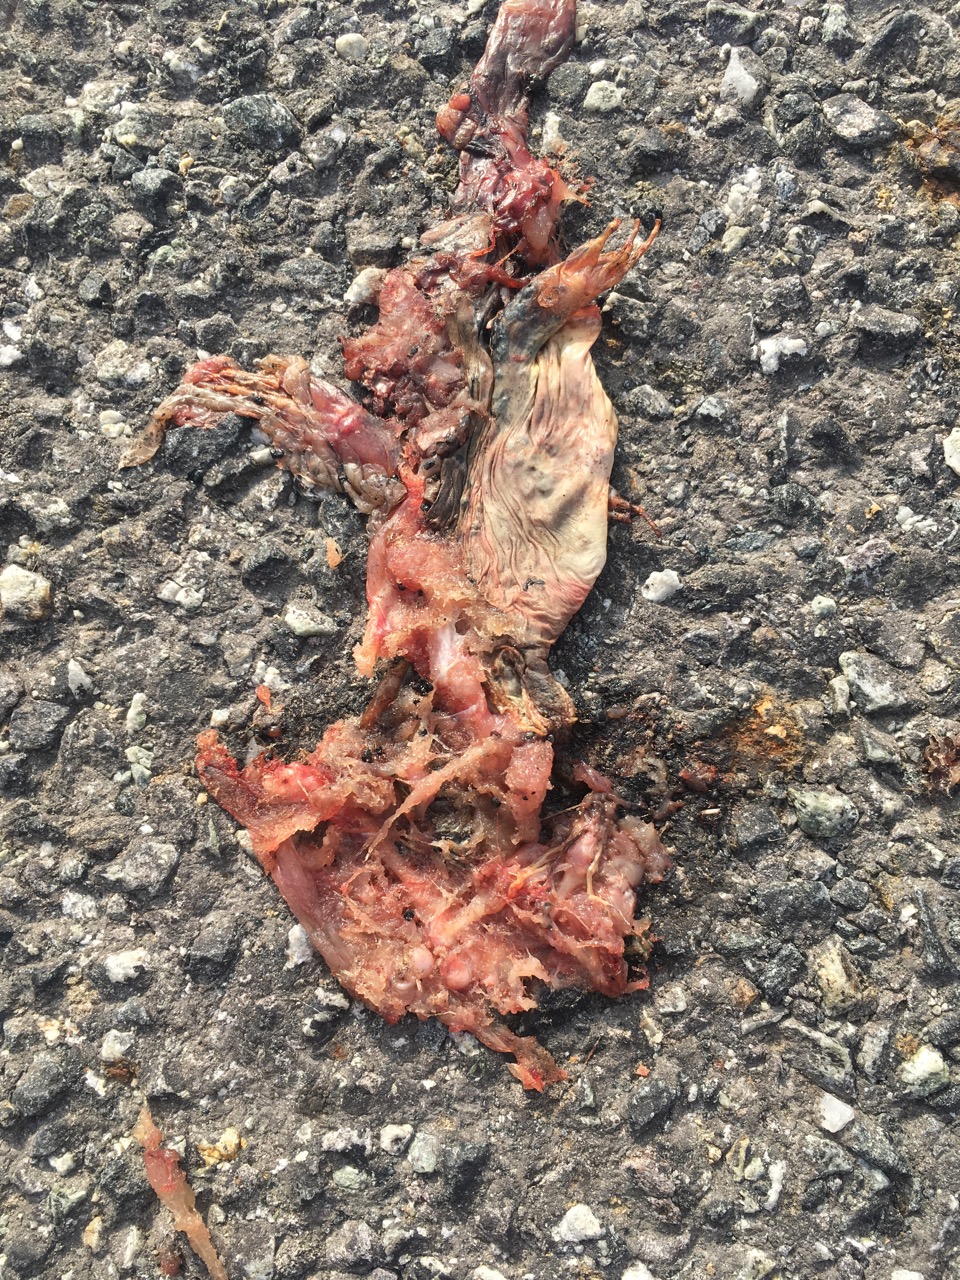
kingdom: Animalia
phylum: Chordata
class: Amphibia
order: Anura
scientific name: Anura
